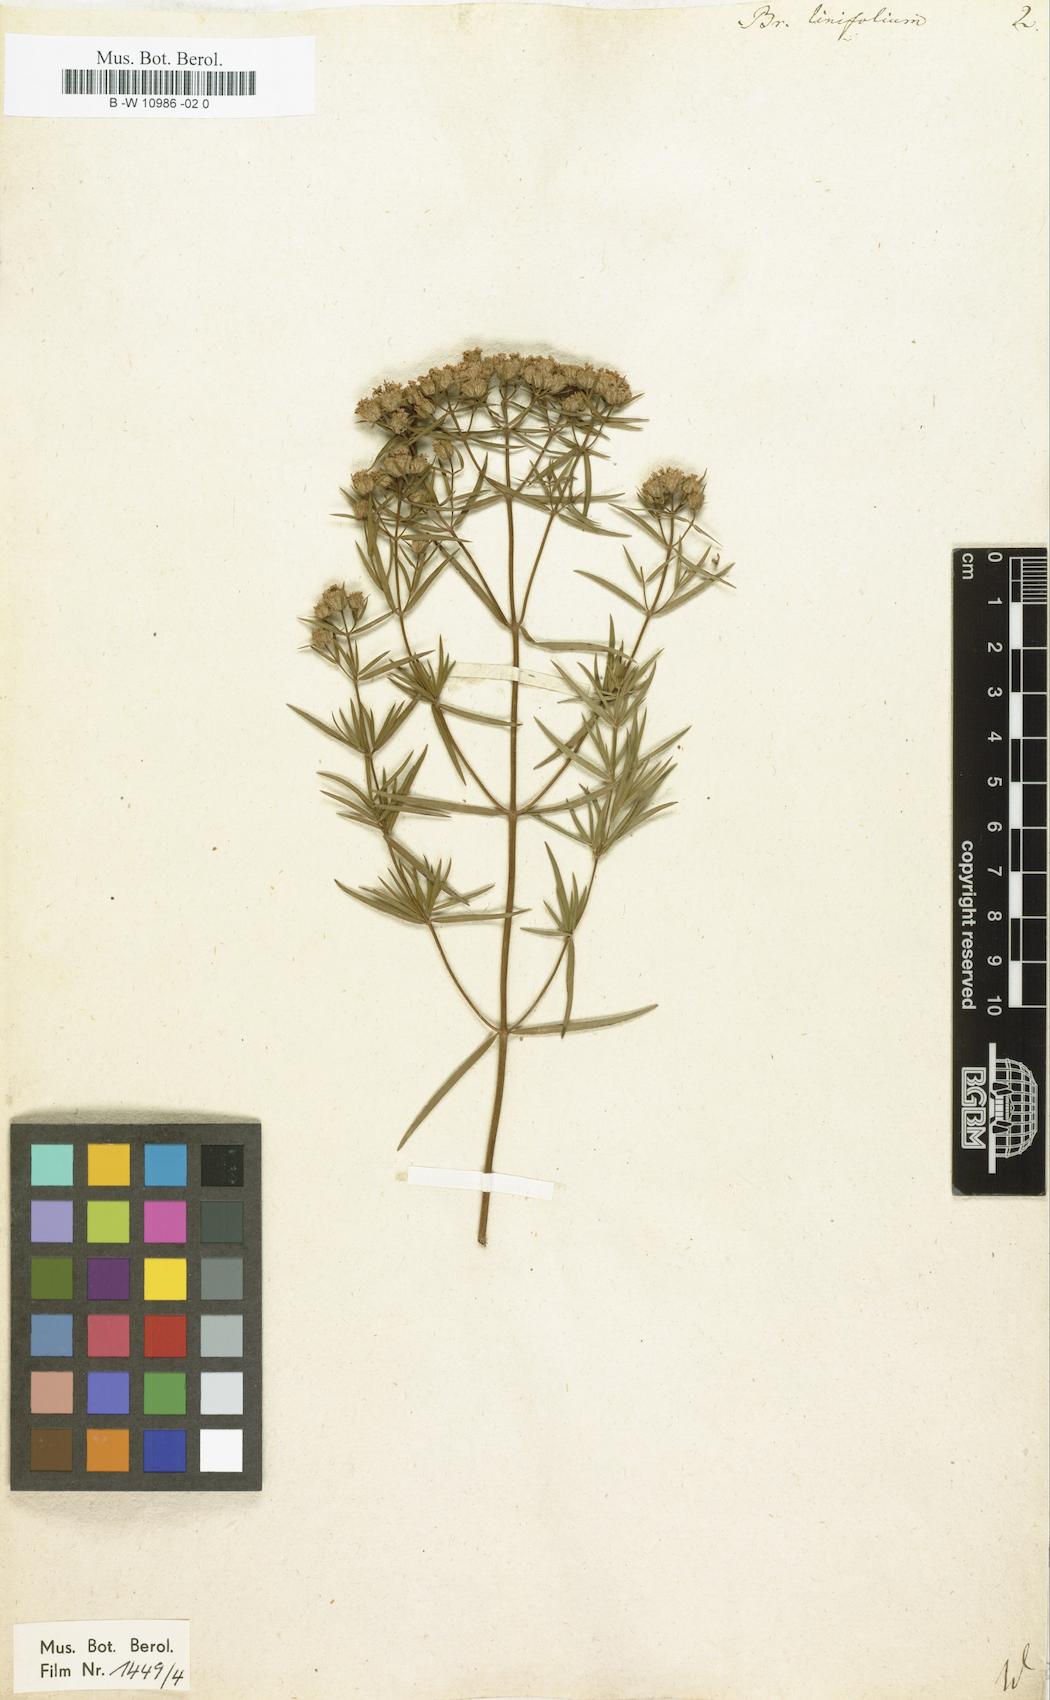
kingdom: Plantae
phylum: Tracheophyta
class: Magnoliopsida
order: Lamiales
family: Lamiaceae
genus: Pycnanthemum
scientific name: Pycnanthemum flexuosum
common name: Appalachian mountain-mint
